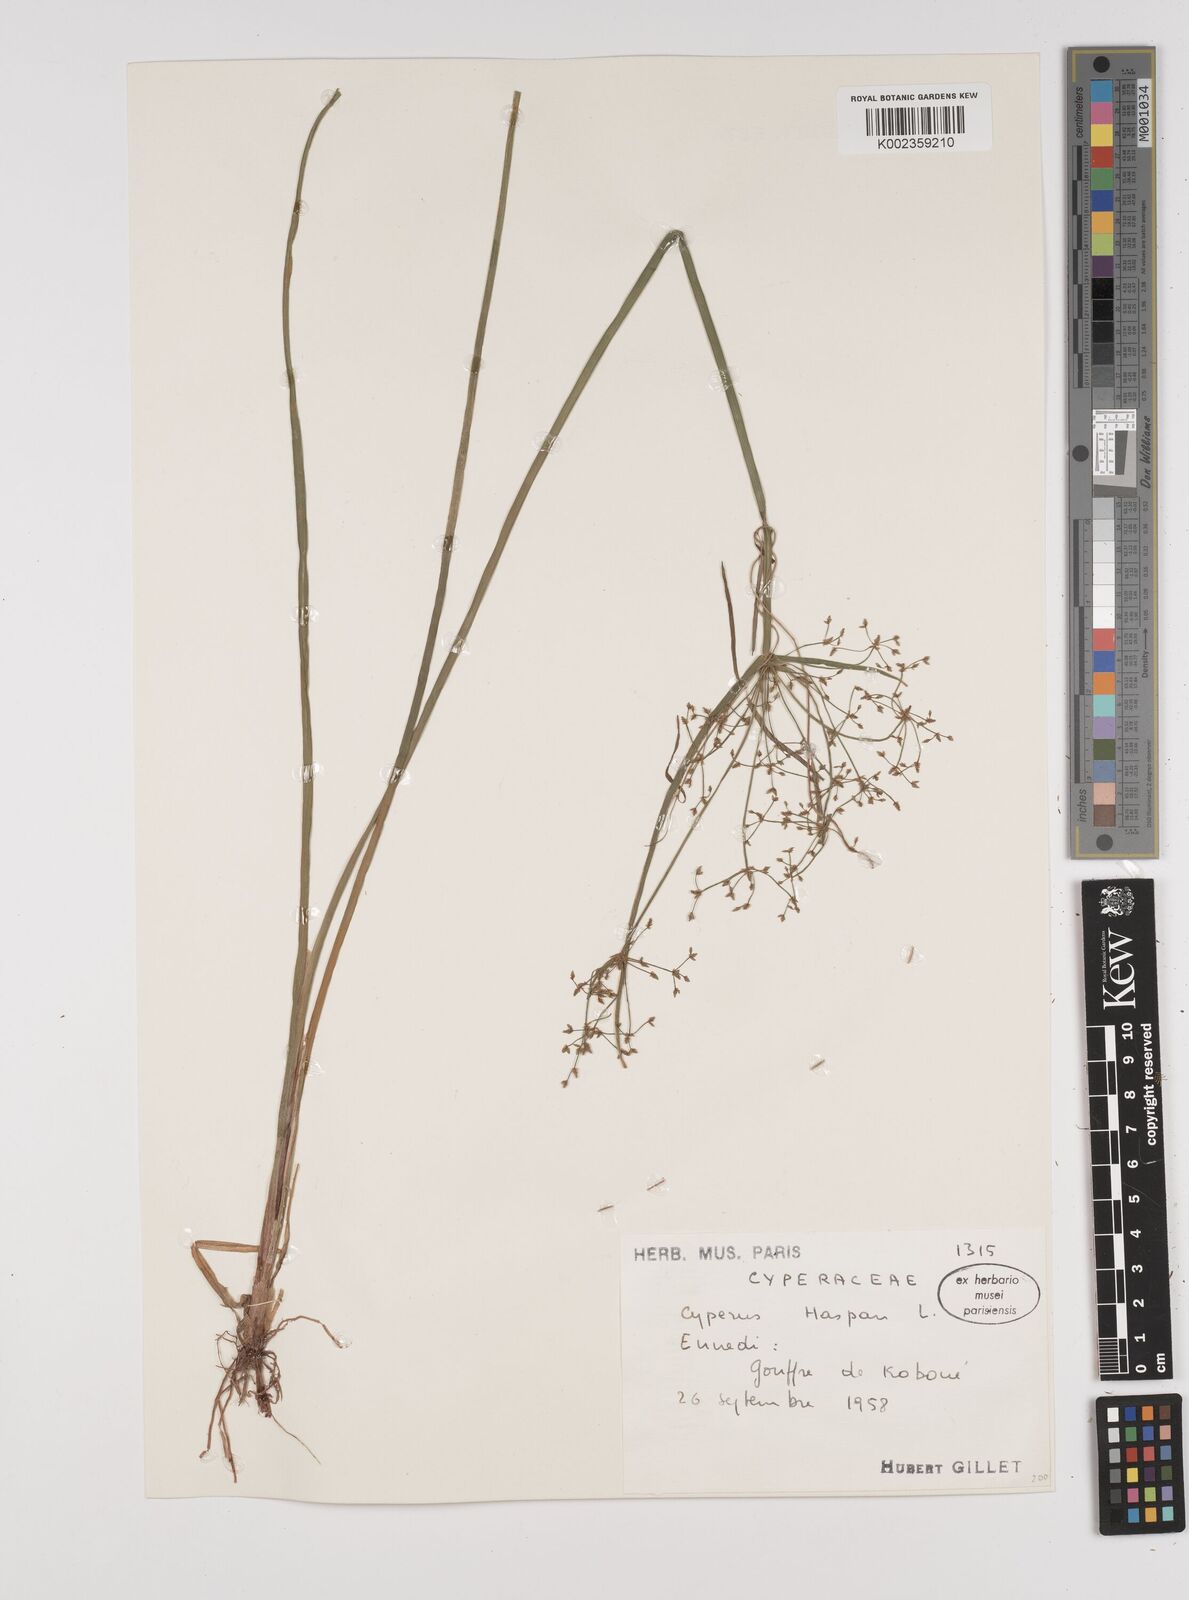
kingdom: Plantae
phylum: Tracheophyta
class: Liliopsida
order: Poales
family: Cyperaceae
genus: Cyperus
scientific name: Cyperus haspan
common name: Haspan flatsedge
